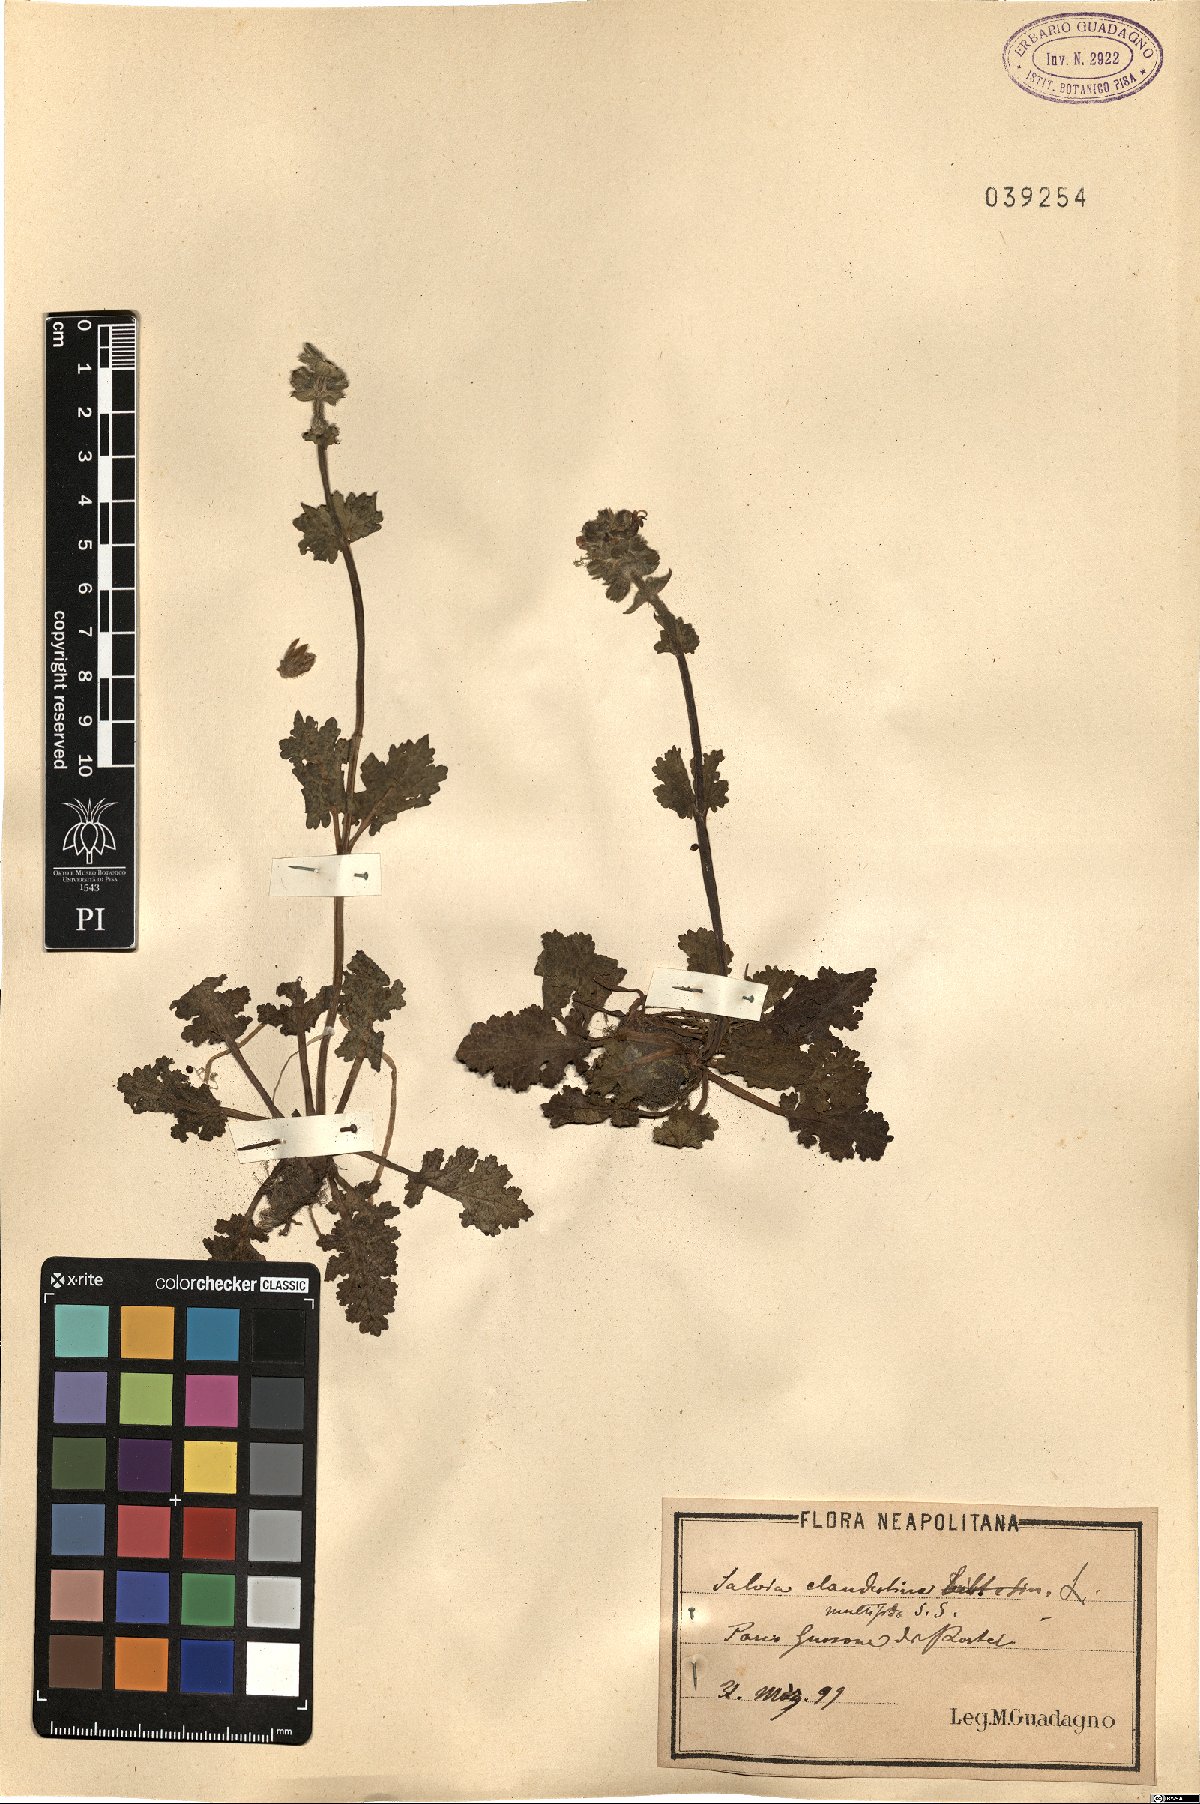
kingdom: Plantae
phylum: Tracheophyta
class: Magnoliopsida
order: Lamiales
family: Lamiaceae
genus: Salvia
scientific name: Salvia verbenaca
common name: Wild clary
